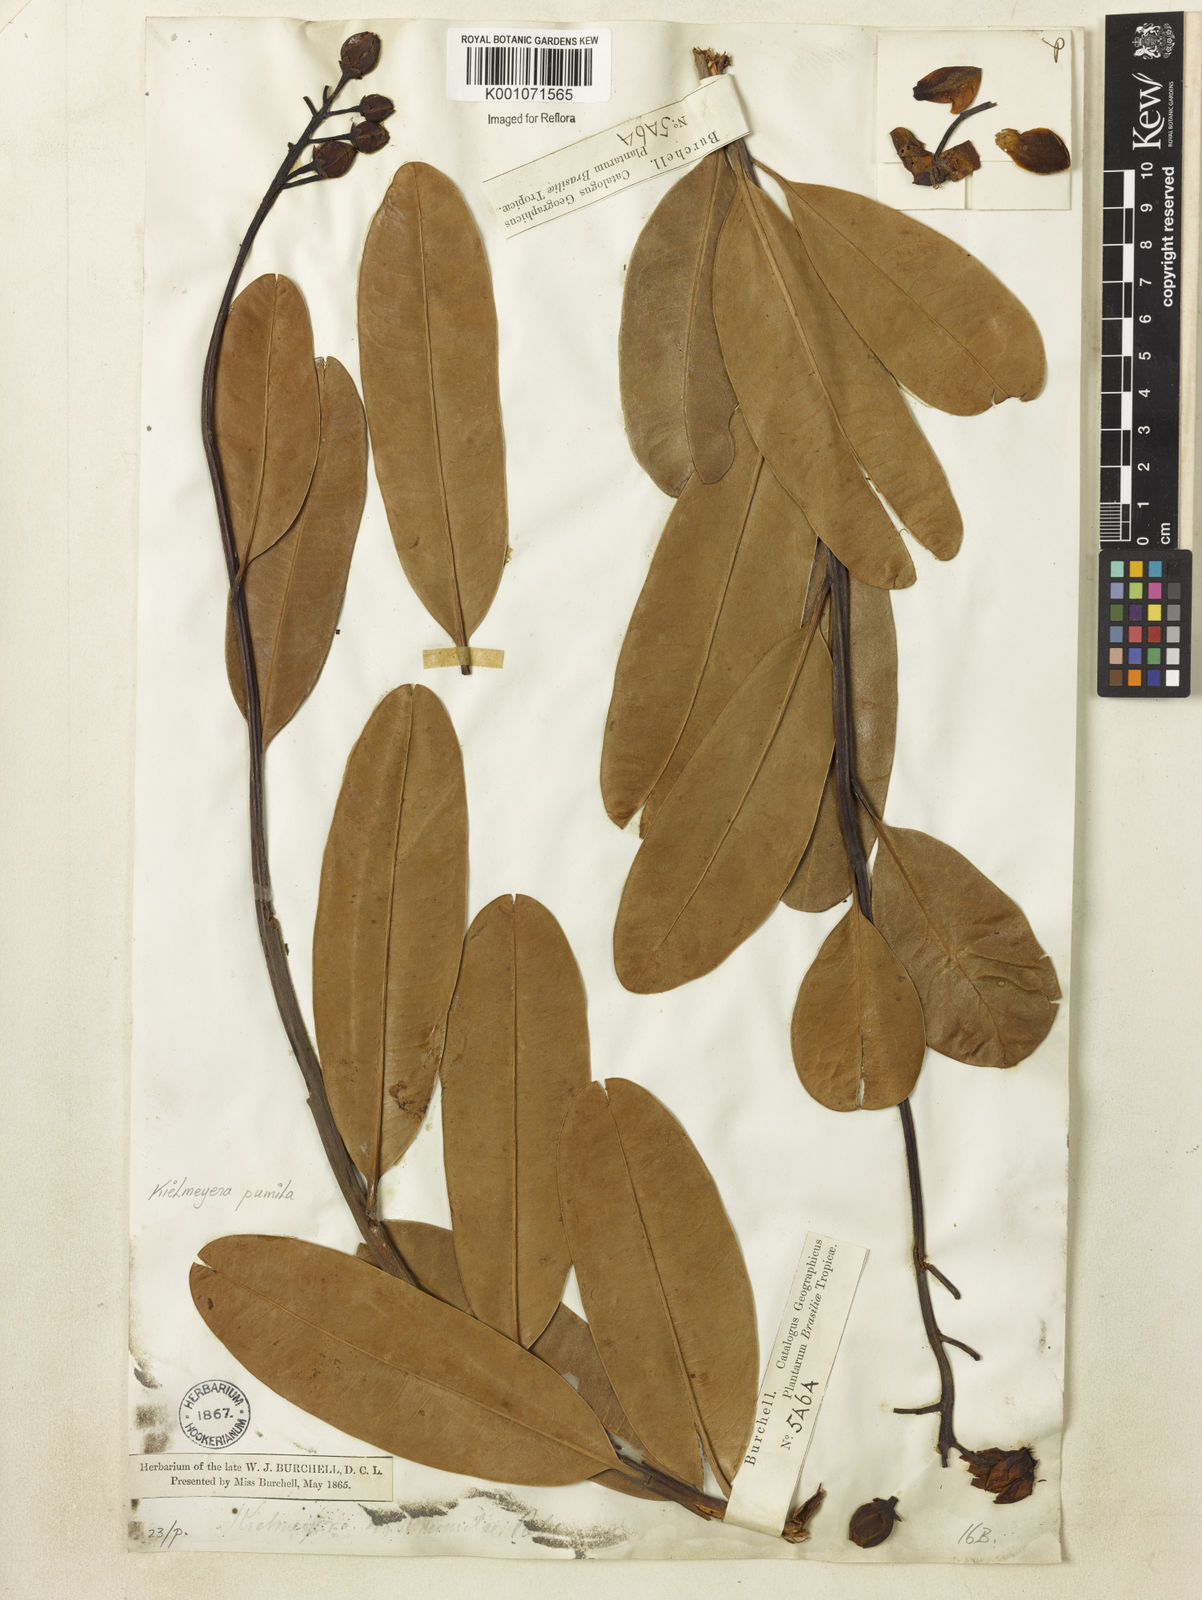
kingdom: Plantae
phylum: Tracheophyta
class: Magnoliopsida
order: Malpighiales
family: Calophyllaceae
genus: Kielmeyera
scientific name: Kielmeyera pumila
